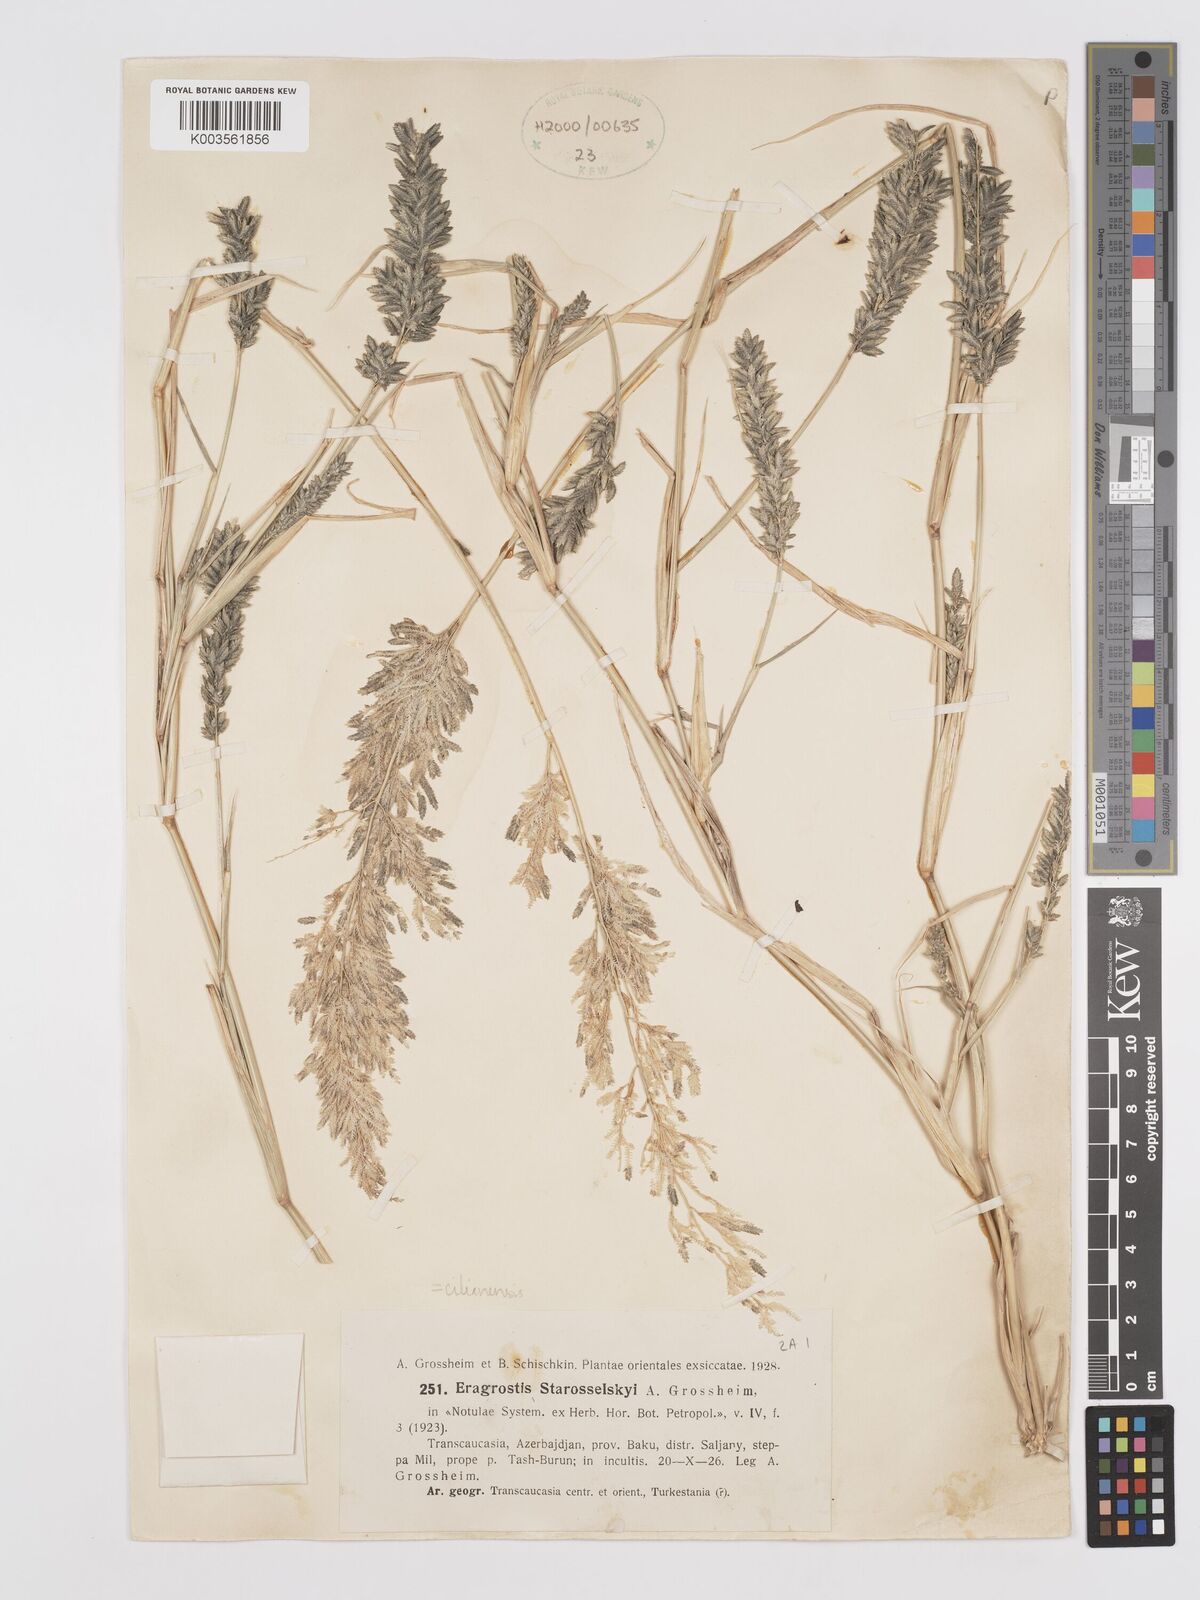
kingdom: Plantae
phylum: Tracheophyta
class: Liliopsida
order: Poales
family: Poaceae
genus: Eragrostis
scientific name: Eragrostis cilianensis
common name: Stinkgrass
